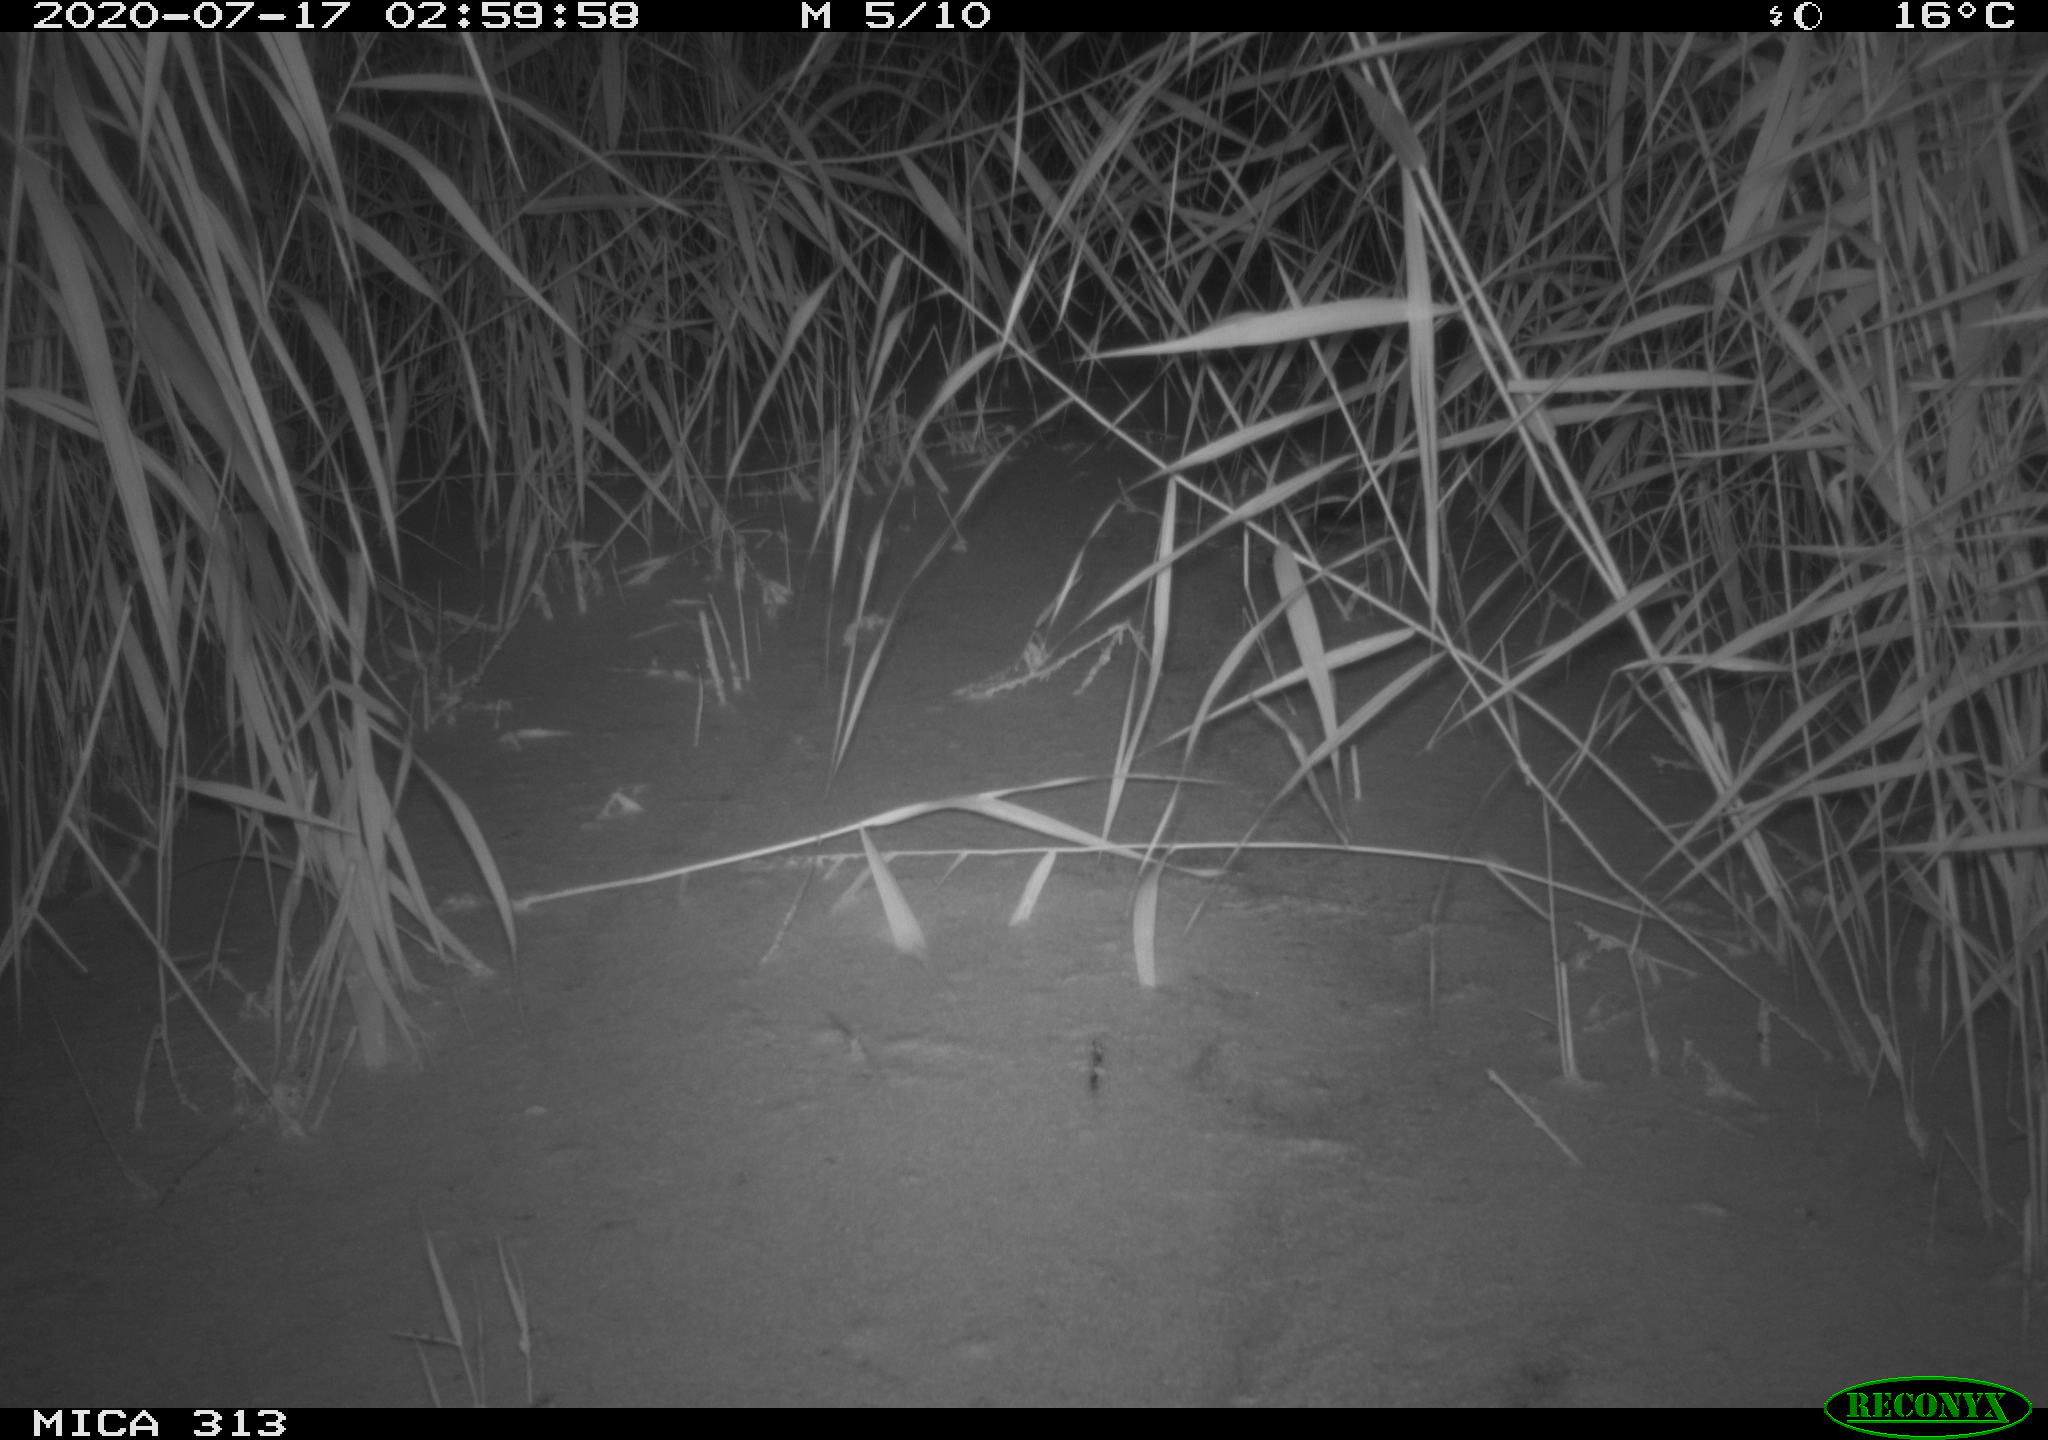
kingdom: Animalia
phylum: Chordata
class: Aves
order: Gruiformes
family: Rallidae
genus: Fulica
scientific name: Fulica atra
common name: Eurasian coot
